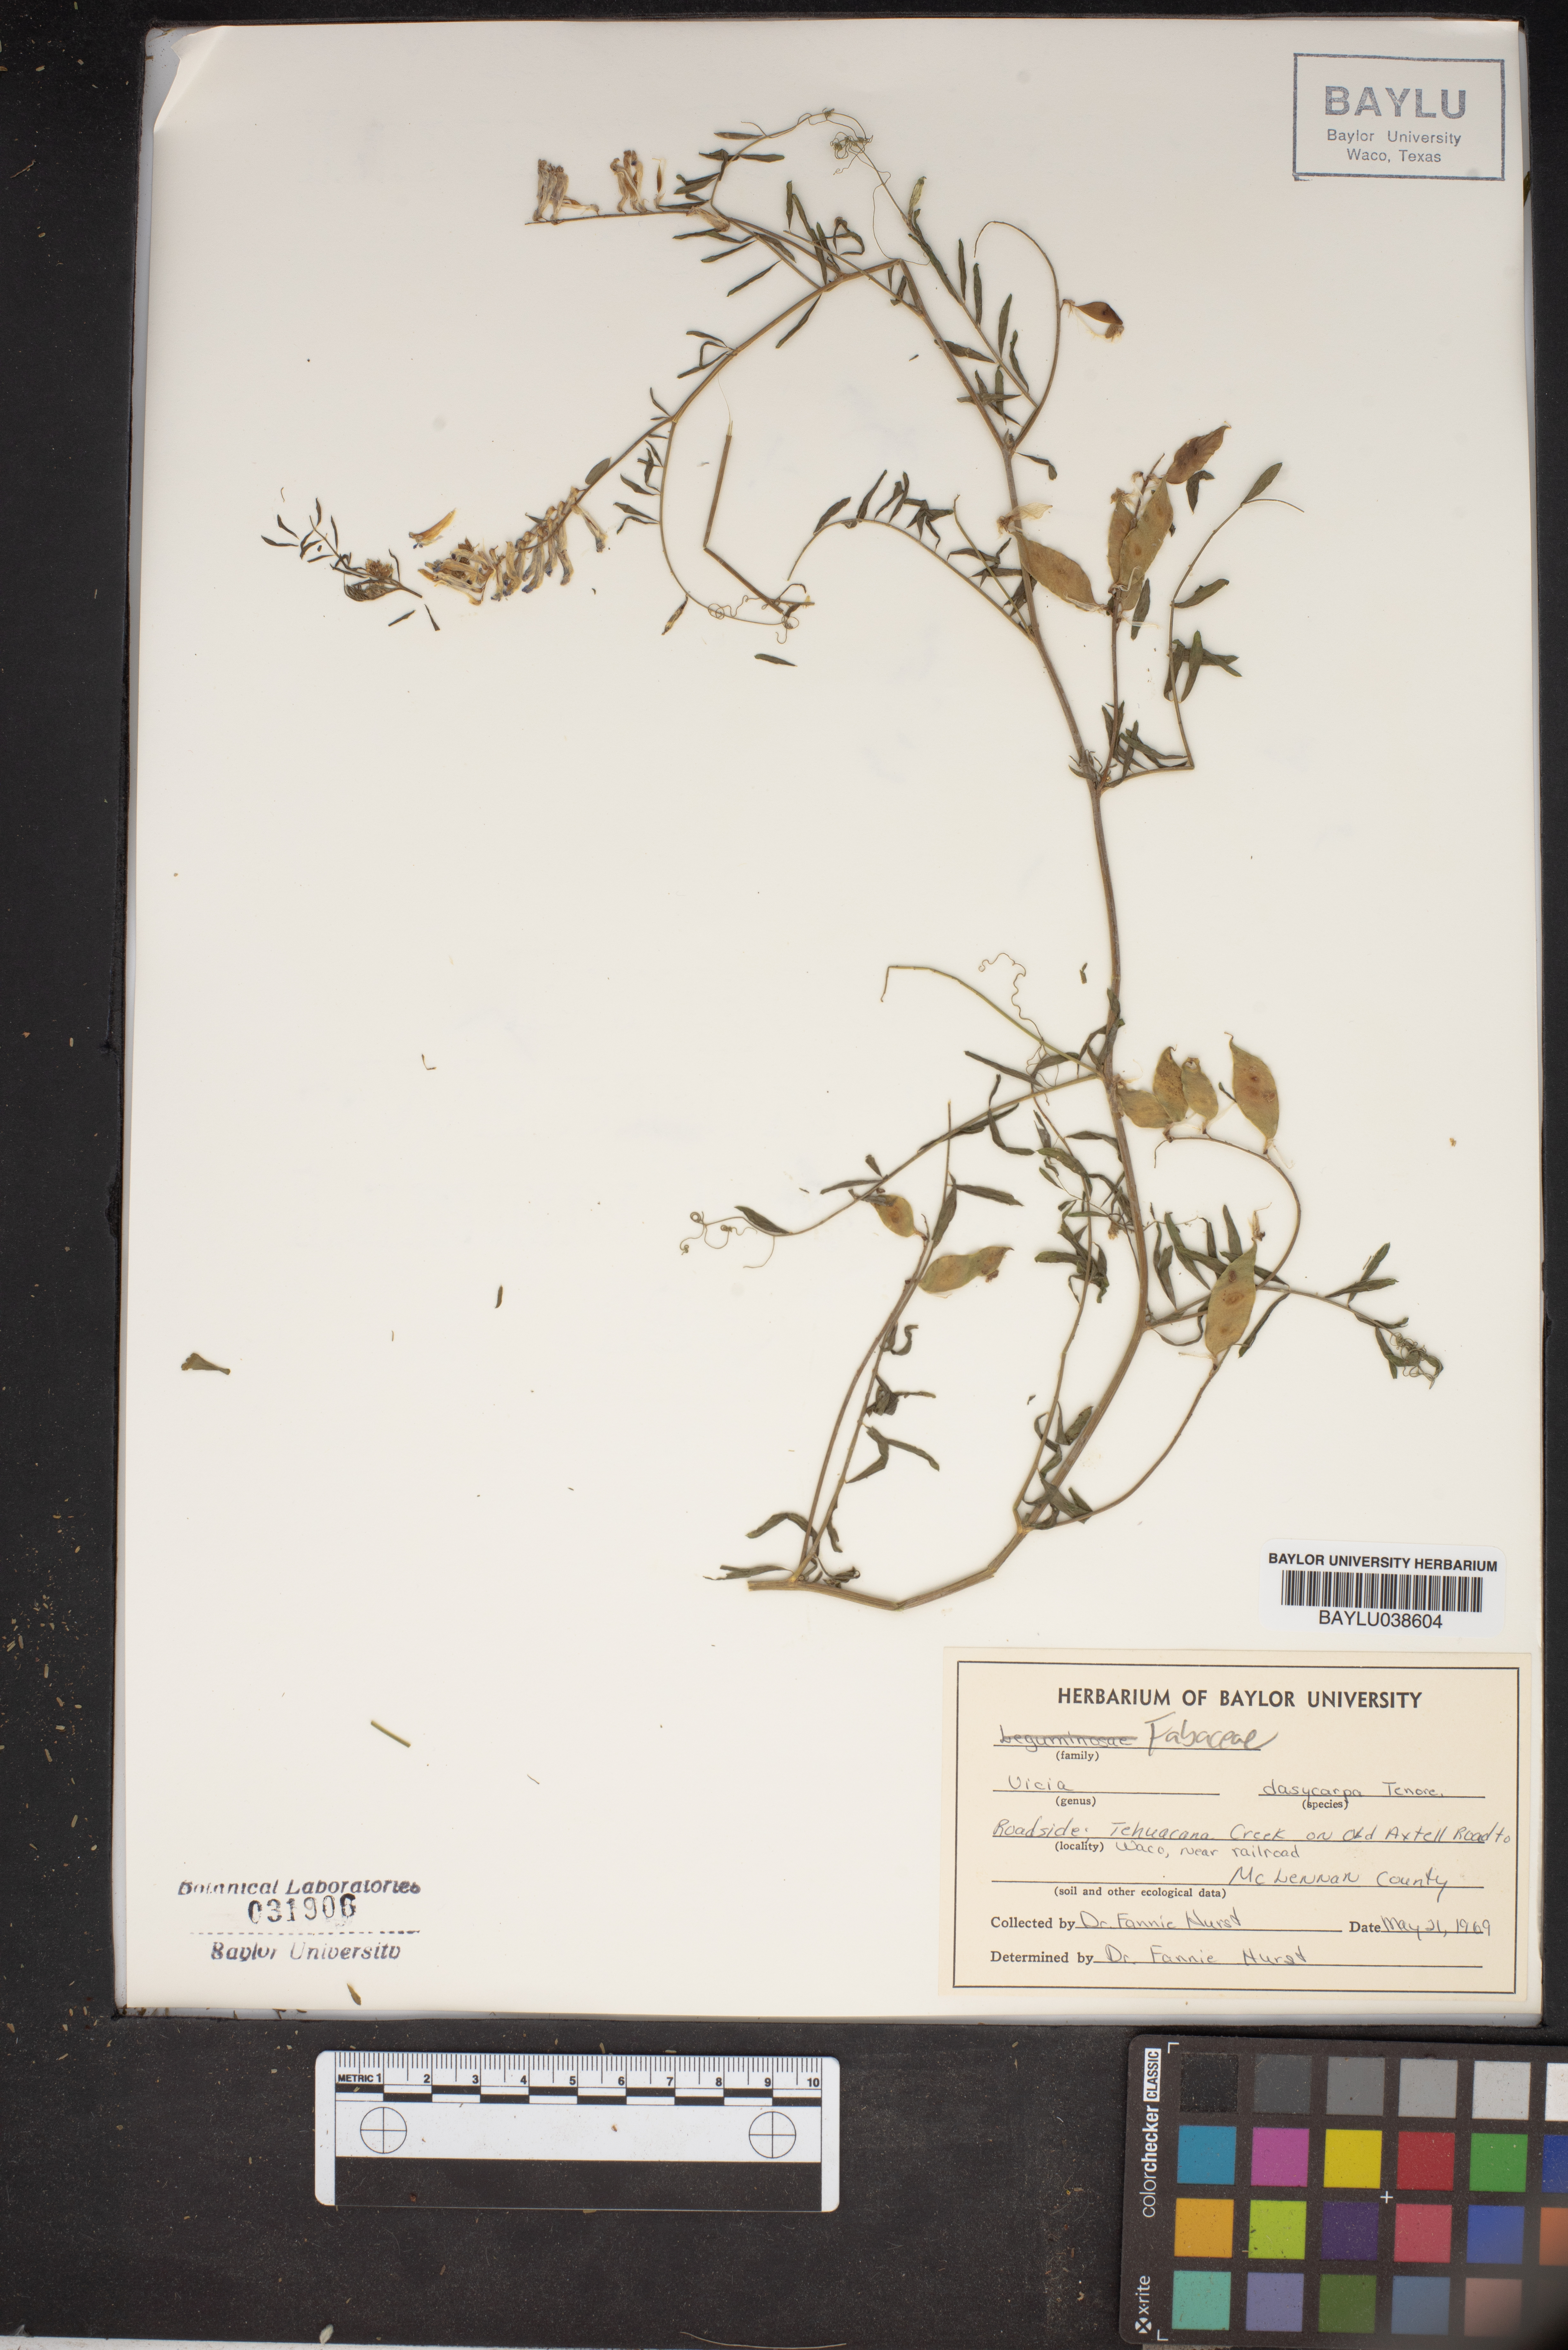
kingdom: Plantae
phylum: Tracheophyta
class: Magnoliopsida
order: Fabales
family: Fabaceae
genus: Vicia
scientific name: Vicia villosa
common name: Fodder vetch
